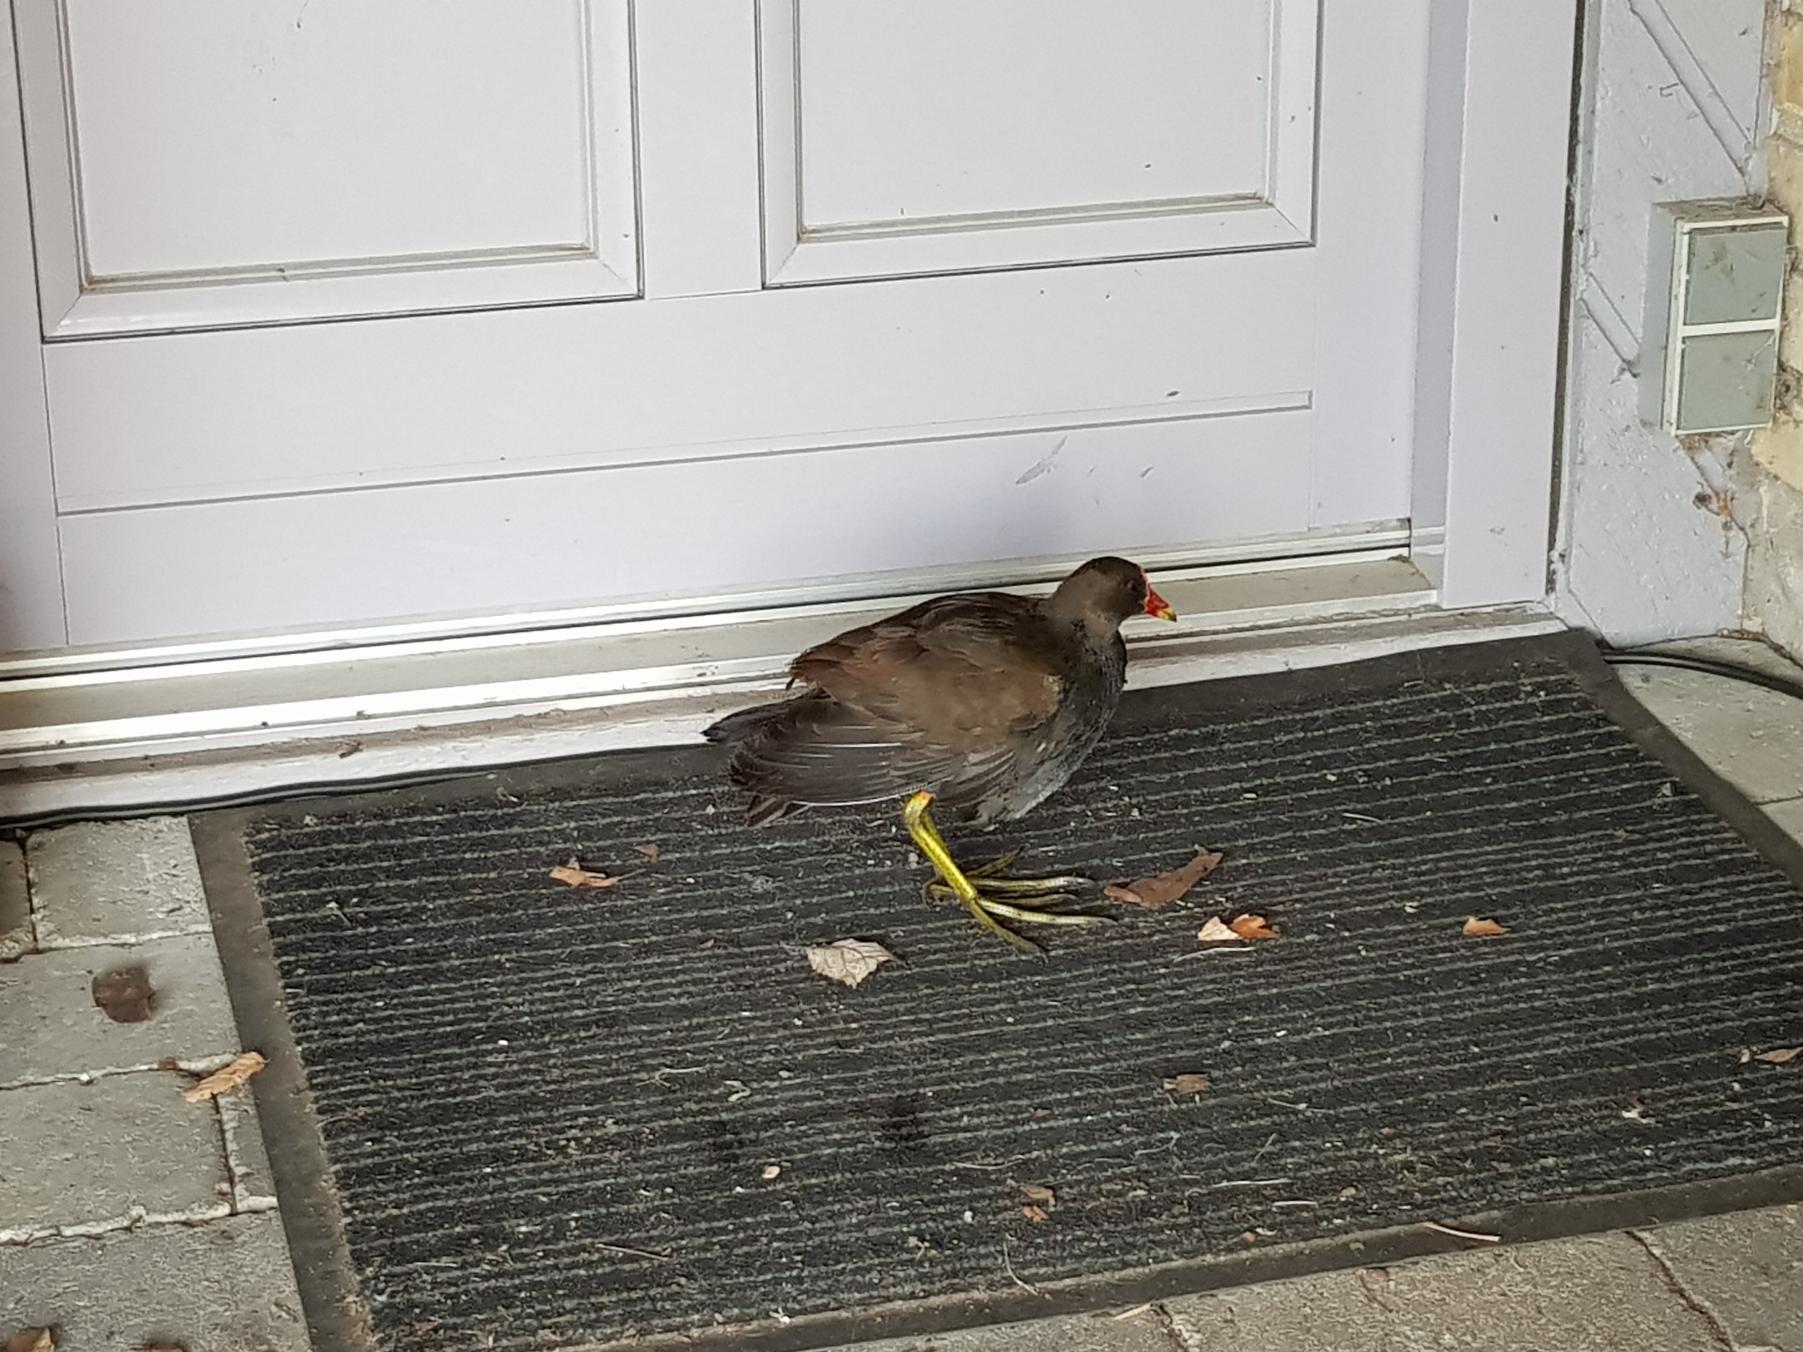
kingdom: Animalia
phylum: Chordata
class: Aves
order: Gruiformes
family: Rallidae
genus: Gallinula
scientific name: Gallinula chloropus
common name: Grønbenet rørhøne
